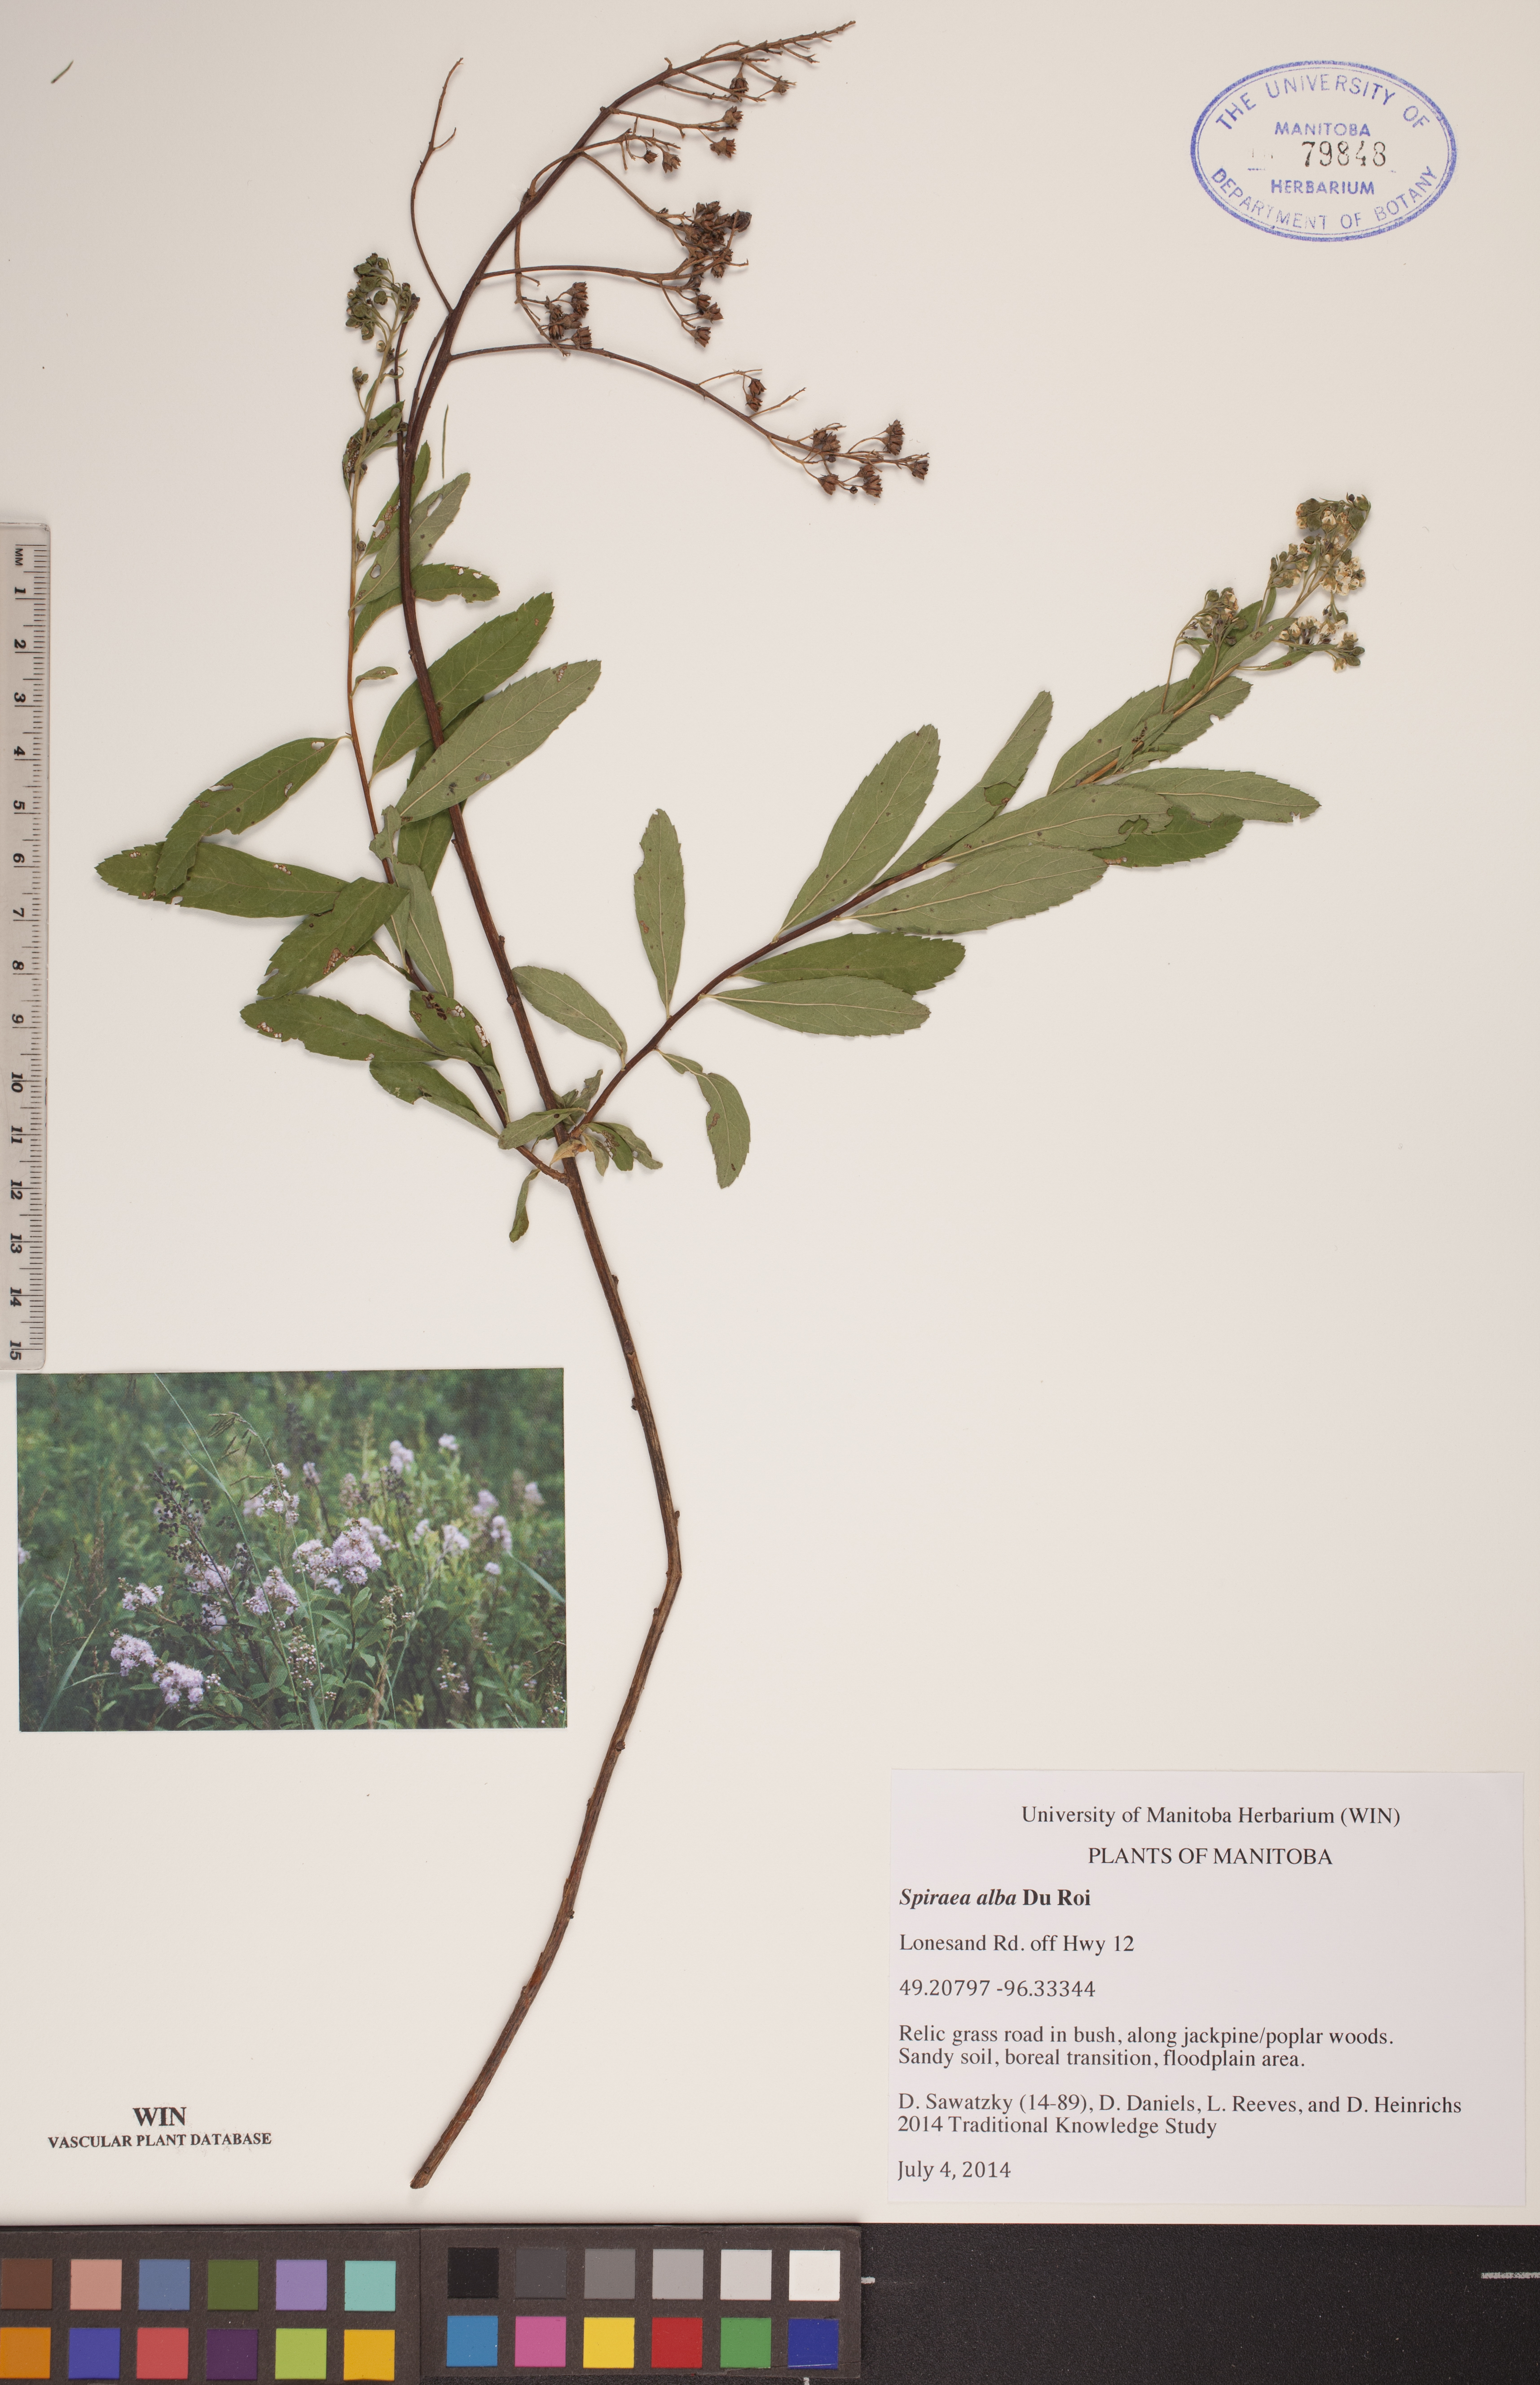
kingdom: Plantae
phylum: Tracheophyta
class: Liliopsida
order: Liliales
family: Liliaceae
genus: Clintonia
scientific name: Clintonia borealis
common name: Yellow clintonia
